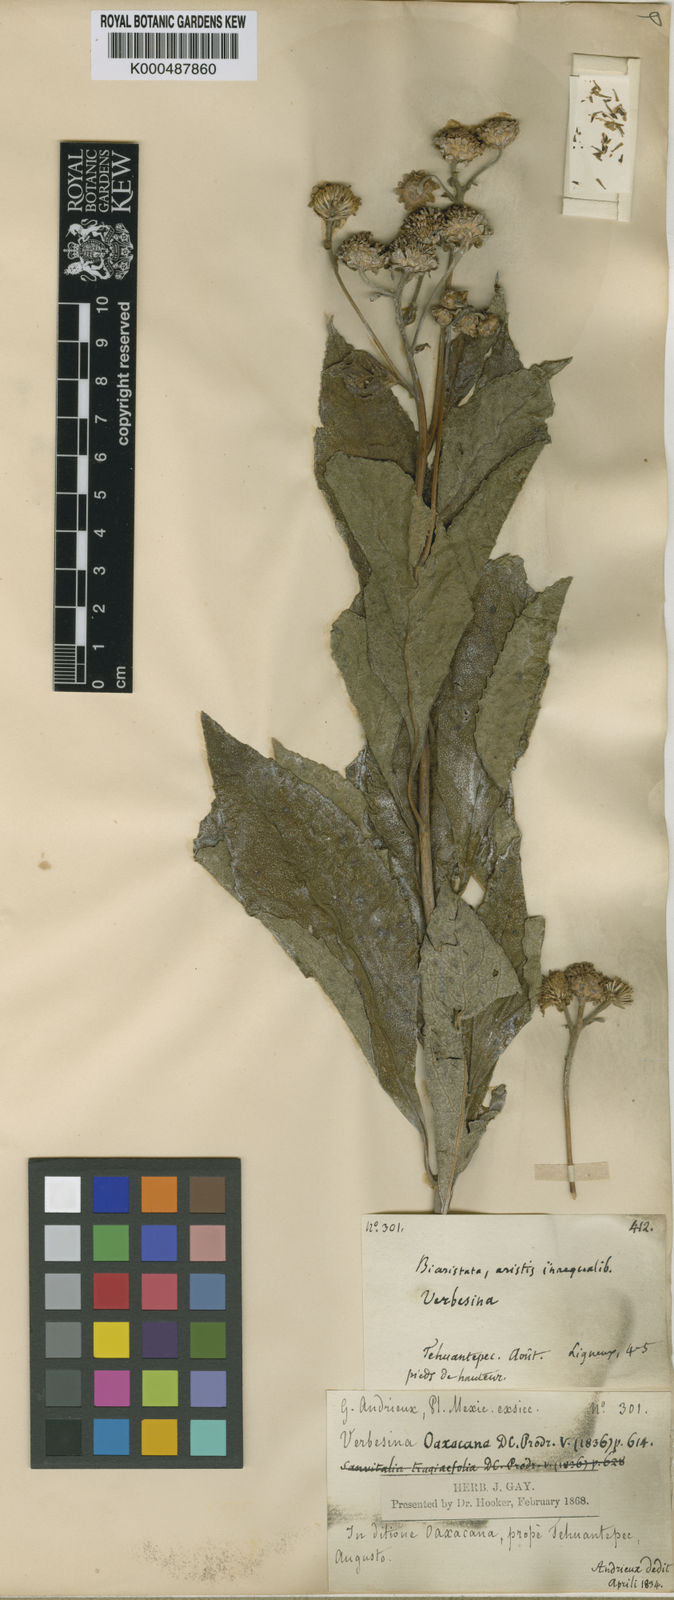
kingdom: Plantae
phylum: Tracheophyta
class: Magnoliopsida
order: Asterales
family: Asteraceae
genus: Verbesina
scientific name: Verbesina oaxacana
